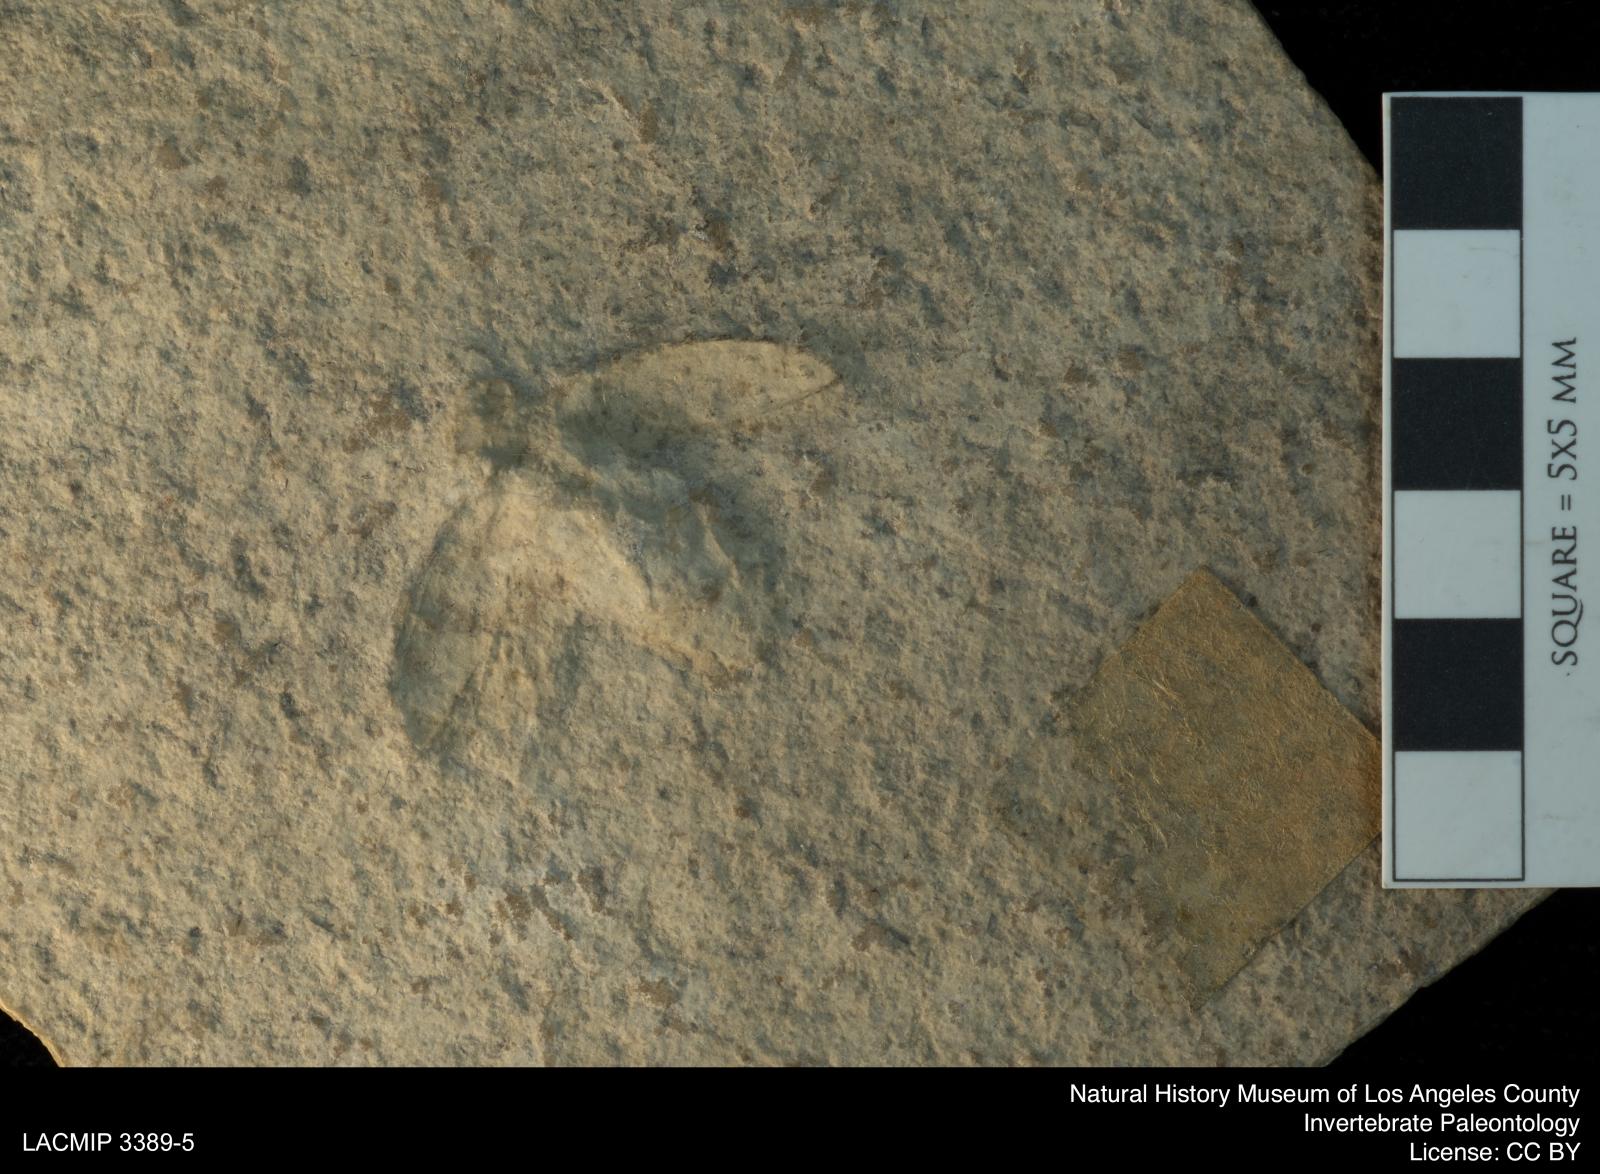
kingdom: Animalia
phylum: Arthropoda
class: Insecta
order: Coleoptera
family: Buprestidae
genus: Sphenoptera
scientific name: Sphenoptera sphinx
